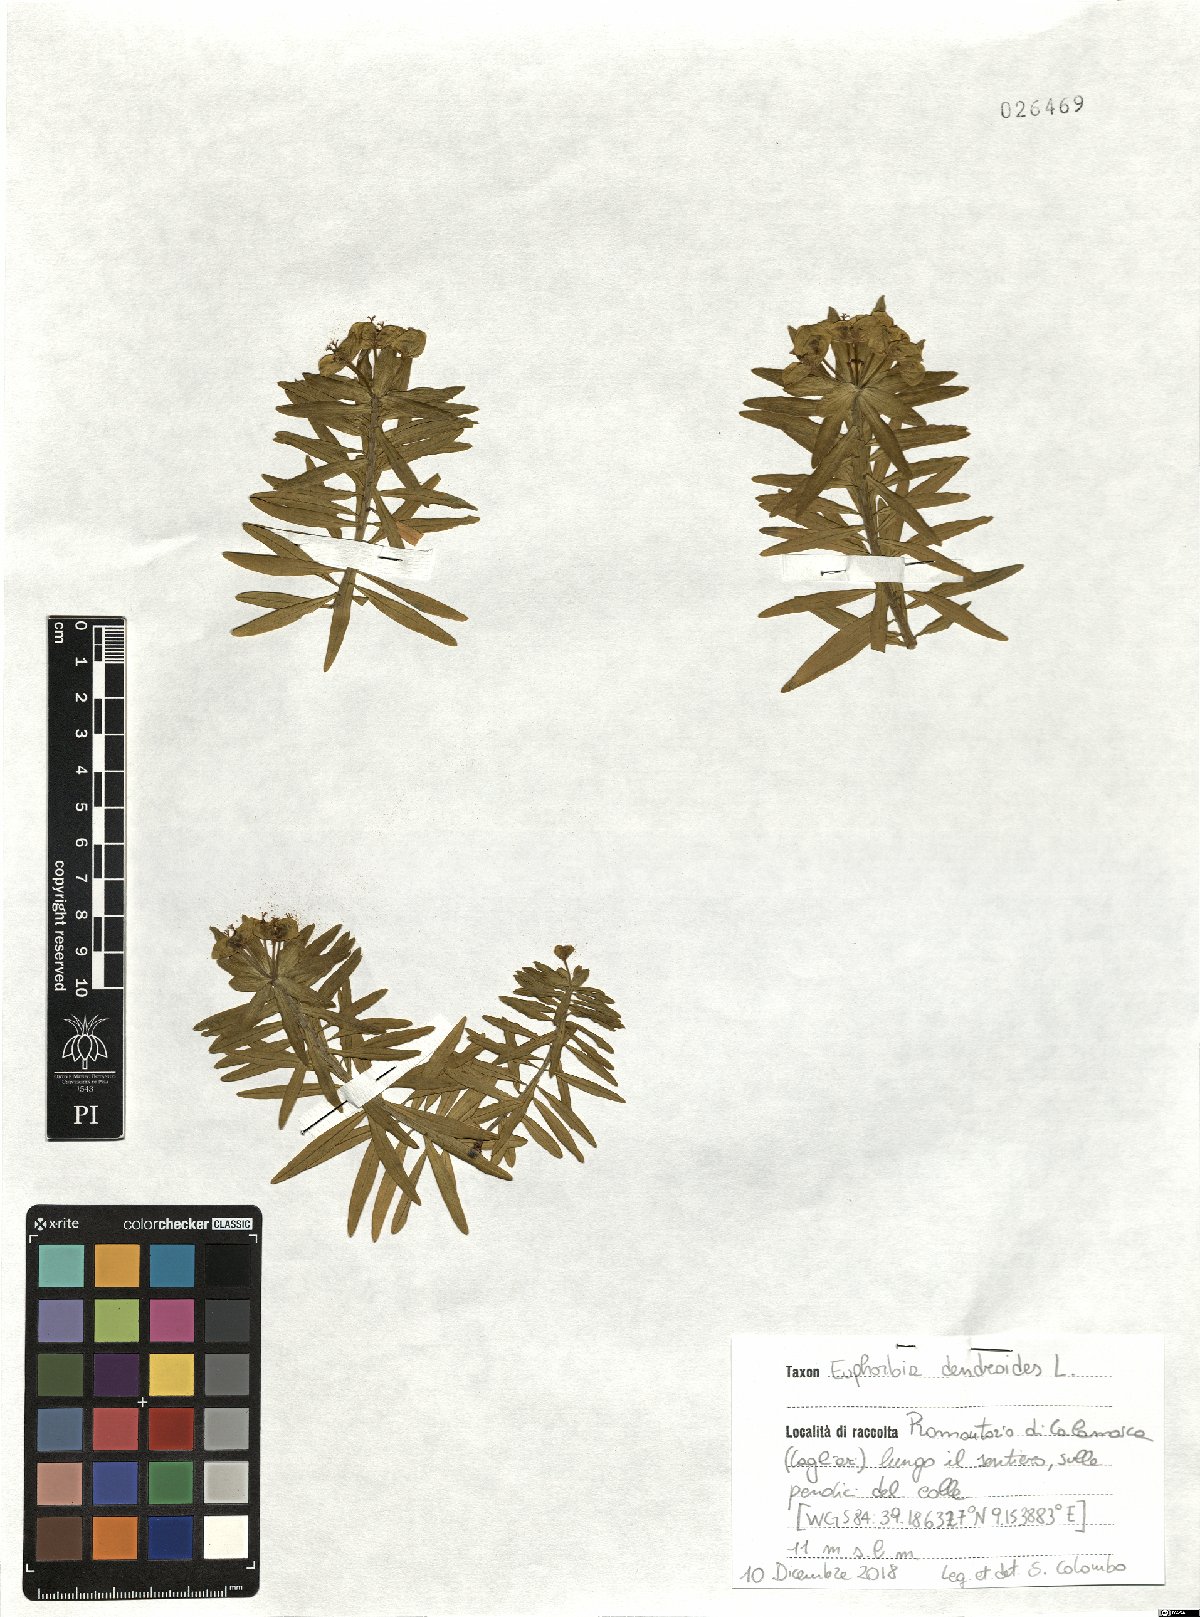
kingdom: Plantae
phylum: Tracheophyta
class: Magnoliopsida
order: Malpighiales
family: Euphorbiaceae
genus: Euphorbia
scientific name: Euphorbia dendroides
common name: Tree spurge
